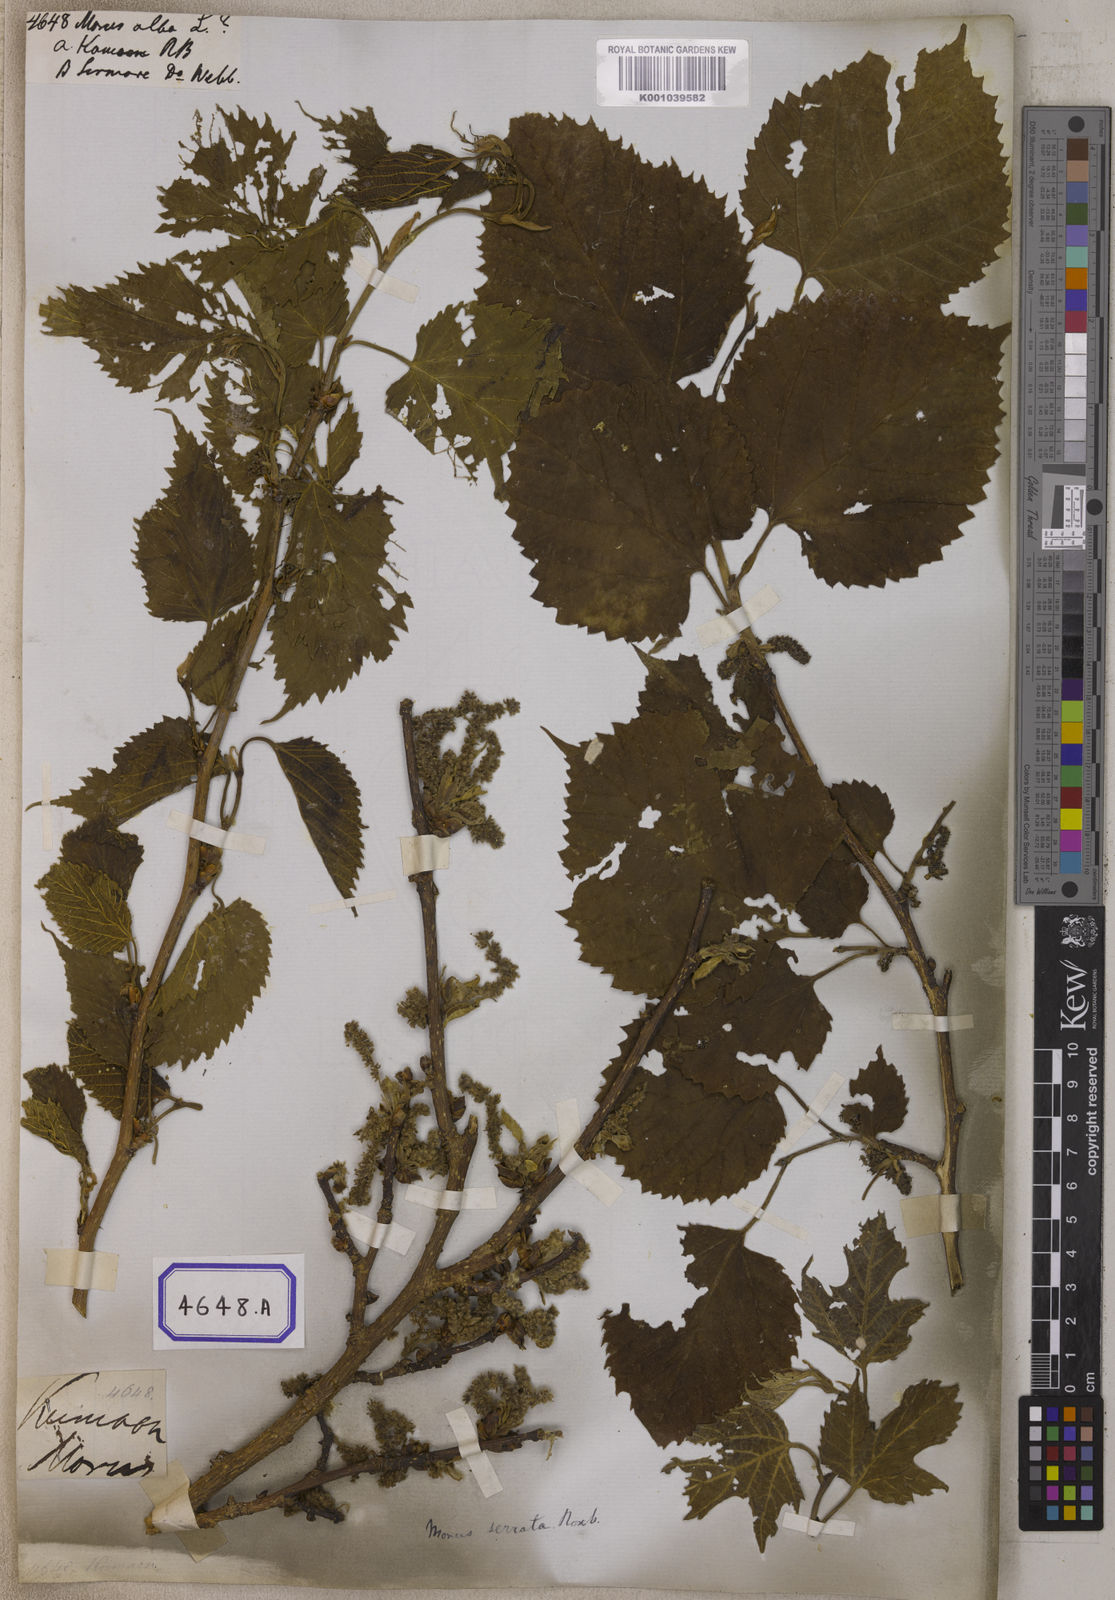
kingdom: Plantae
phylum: Tracheophyta
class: Magnoliopsida
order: Rosales
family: Moraceae
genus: Morus
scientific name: Morus alba
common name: White mulberry
